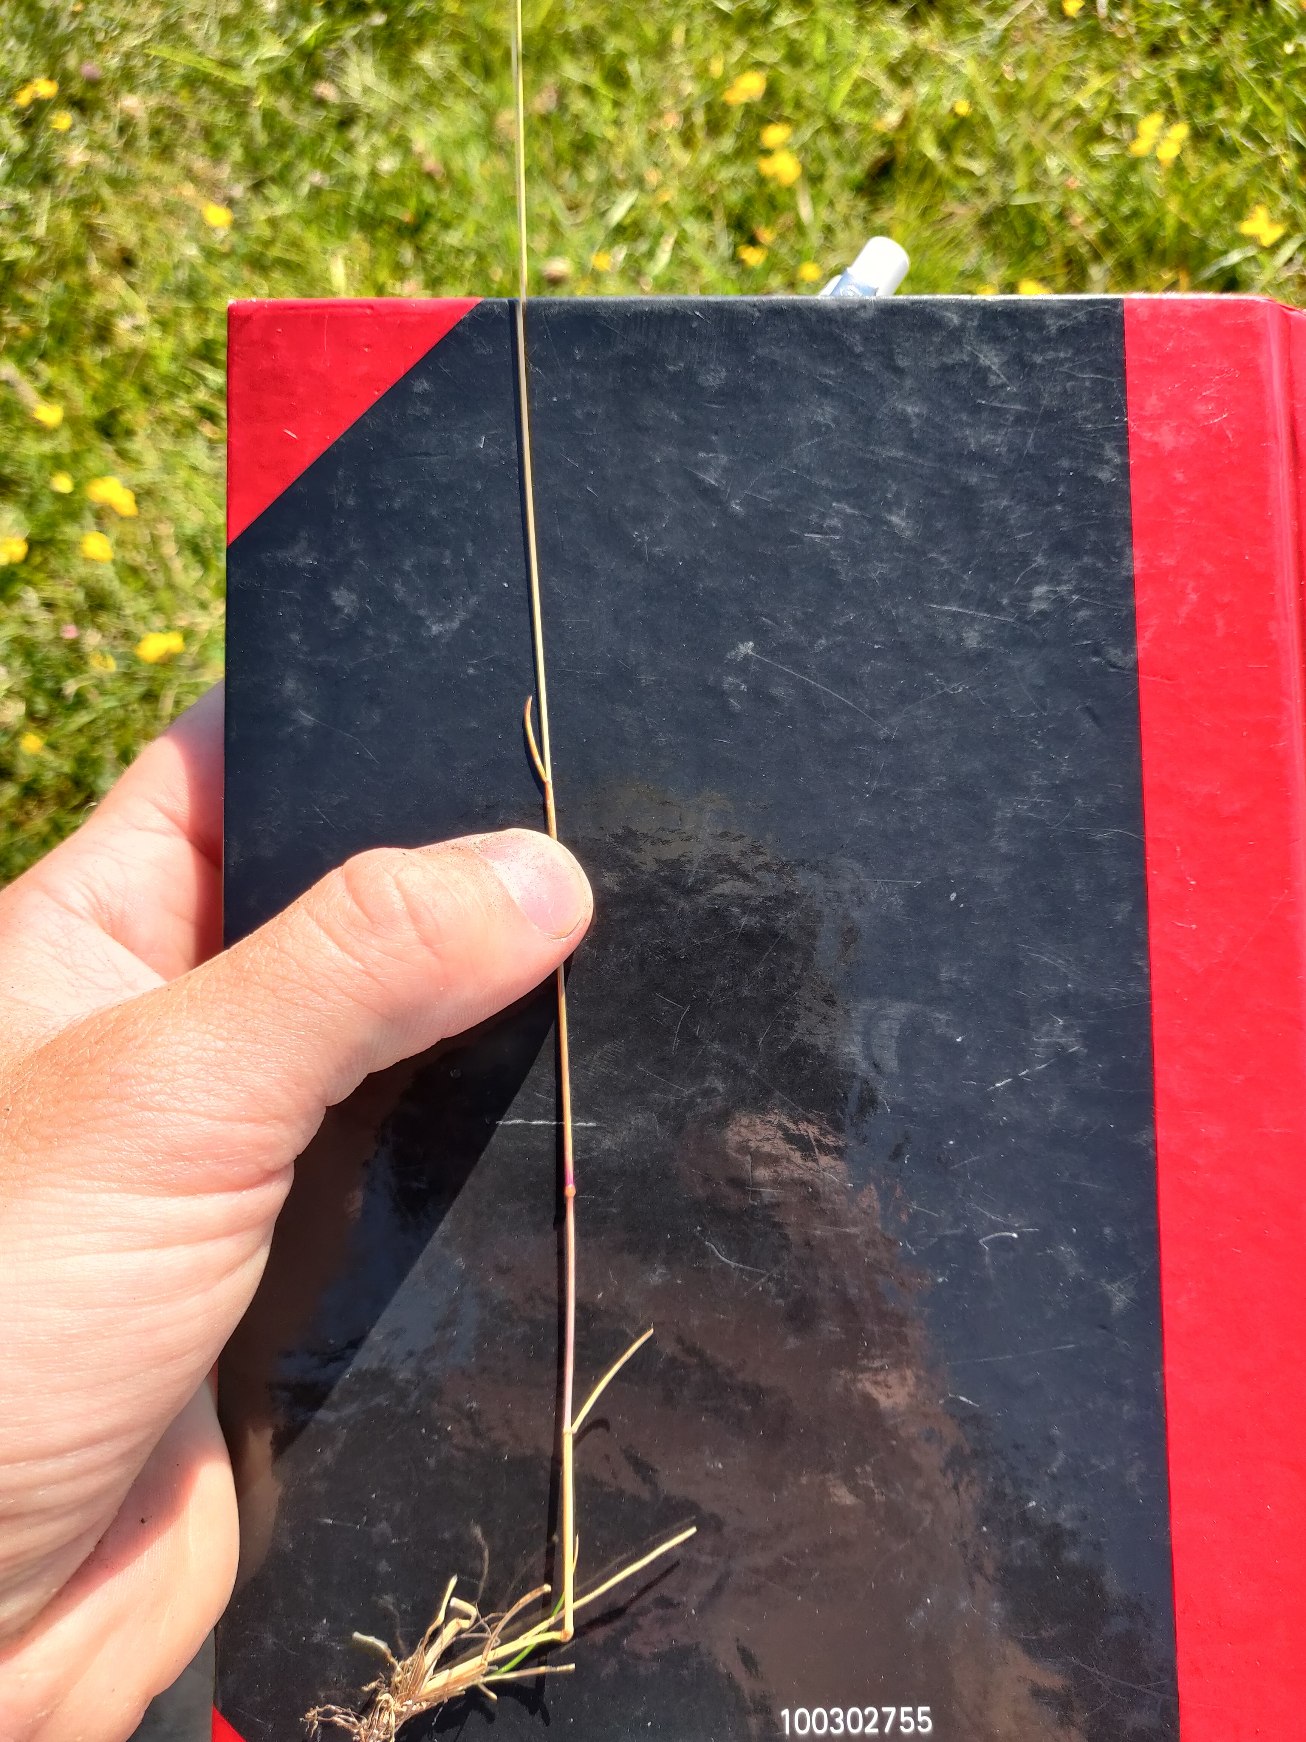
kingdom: Plantae
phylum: Tracheophyta
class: Liliopsida
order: Poales
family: Poaceae
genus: Festuca
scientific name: Festuca rubra
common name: Rød svingel
